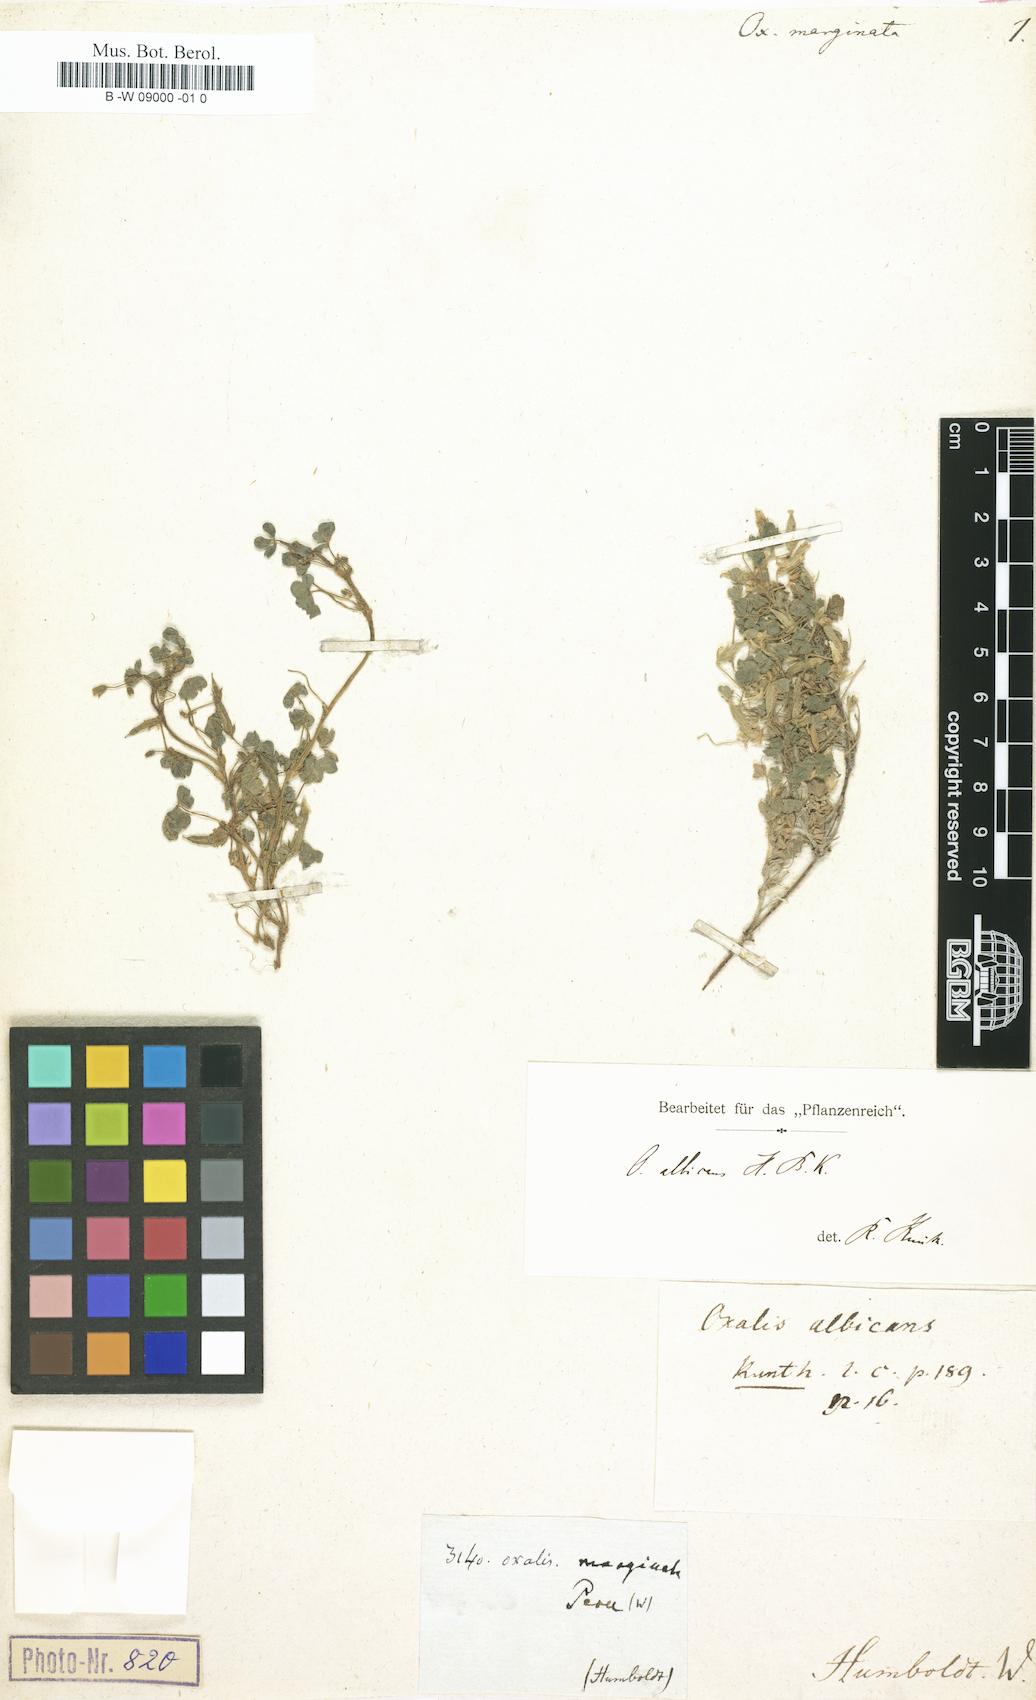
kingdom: Plantae
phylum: Tracheophyta
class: Magnoliopsida
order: Oxalidales
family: Oxalidaceae
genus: Oxalis
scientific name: Oxalis
